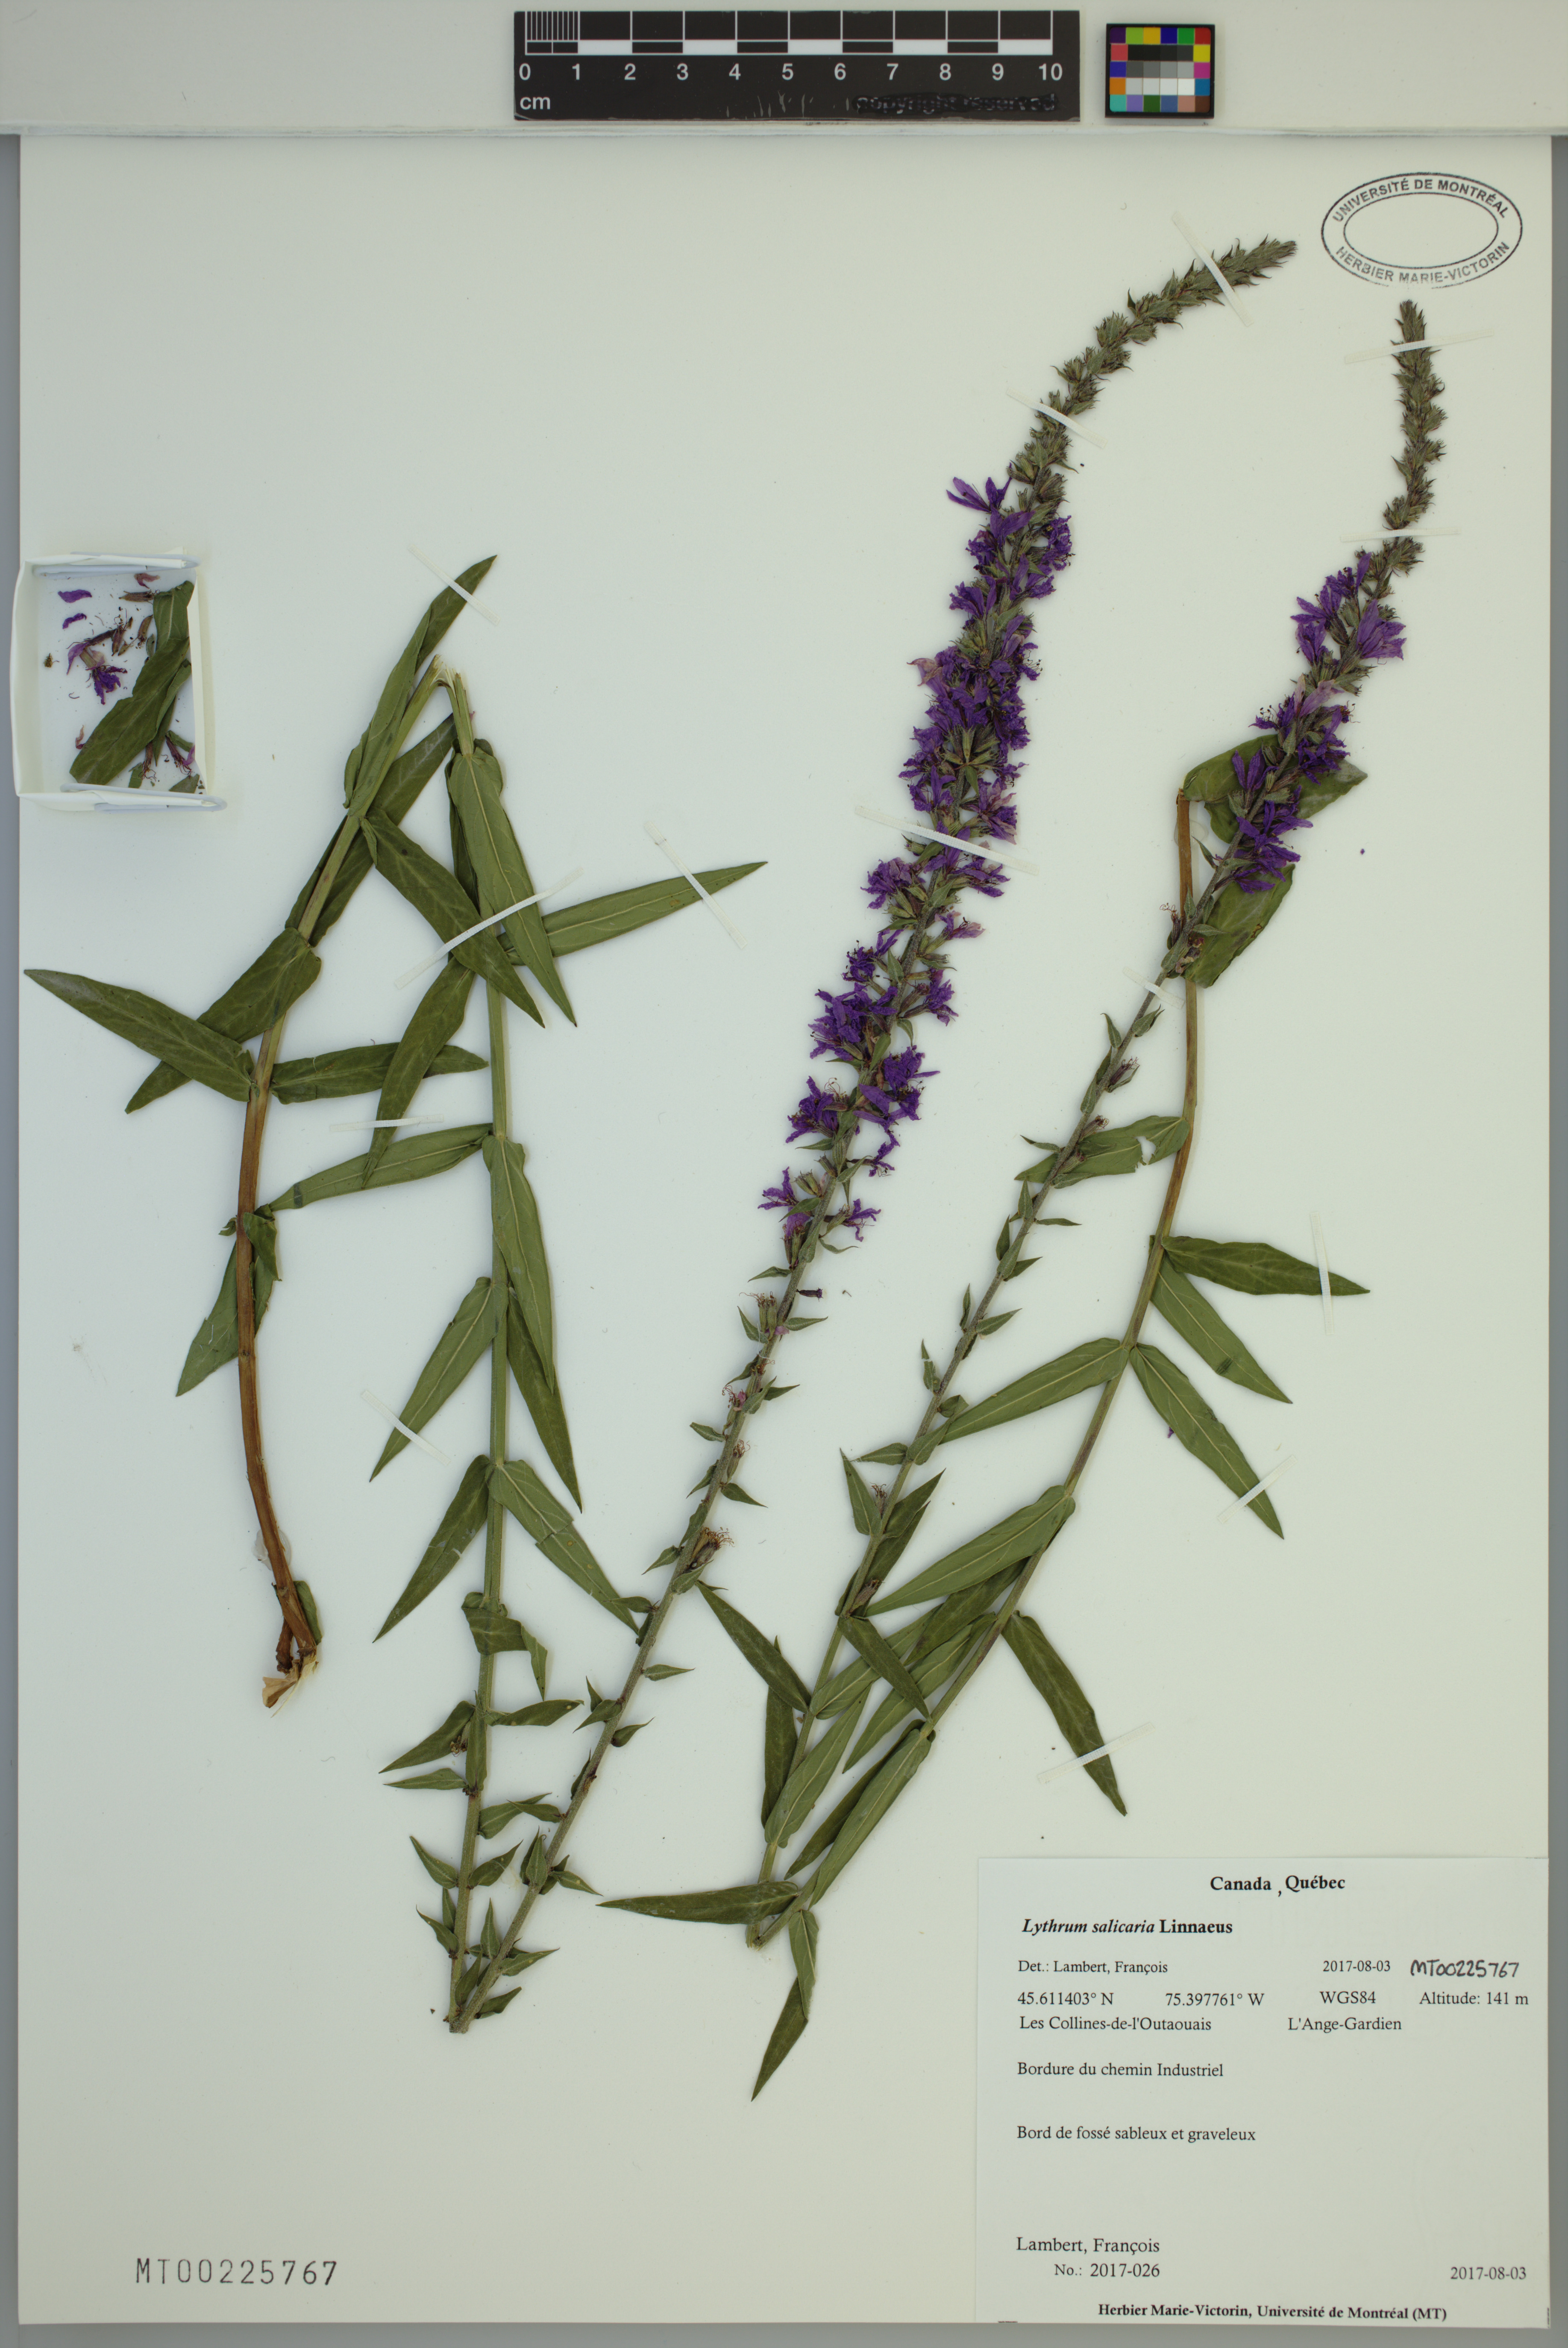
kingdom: Plantae
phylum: Tracheophyta
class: Magnoliopsida
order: Myrtales
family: Lythraceae
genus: Lythrum
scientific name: Lythrum salicaria
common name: Purple loosestrife
